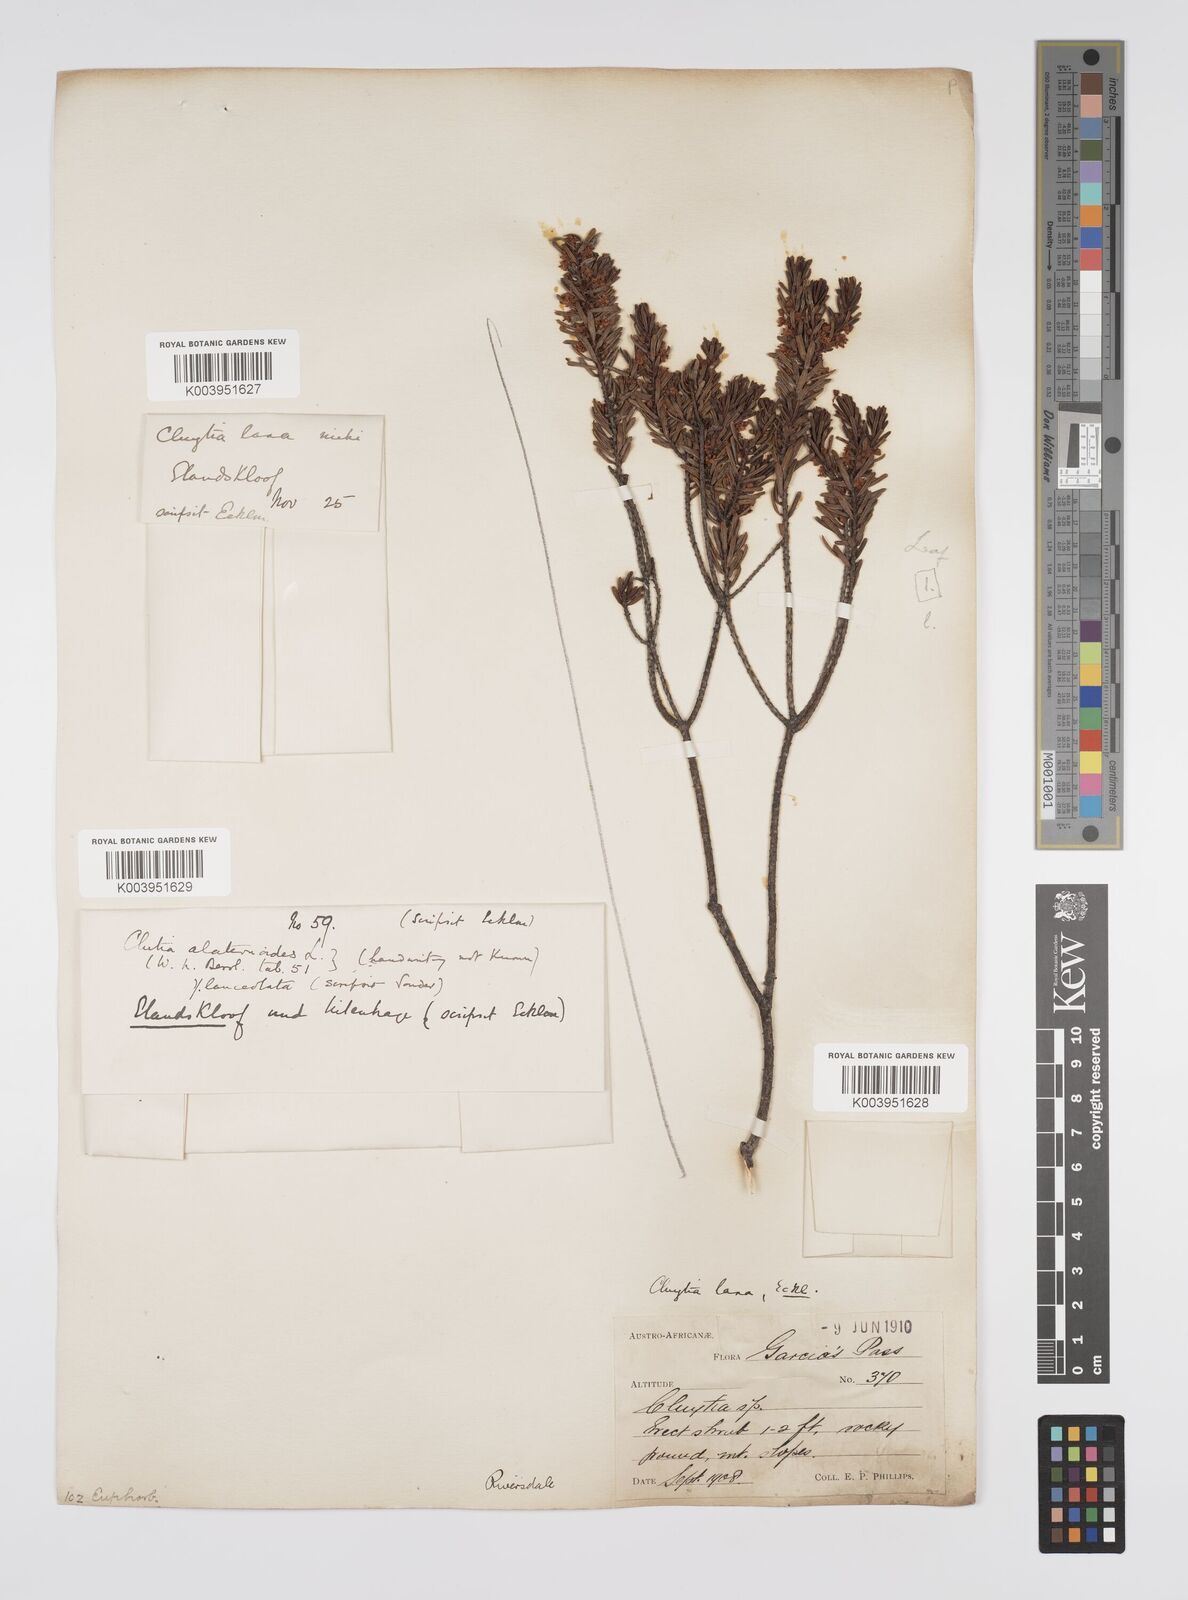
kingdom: Plantae
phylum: Tracheophyta
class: Magnoliopsida
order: Malpighiales
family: Peraceae
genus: Clutia
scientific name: Clutia laxa
